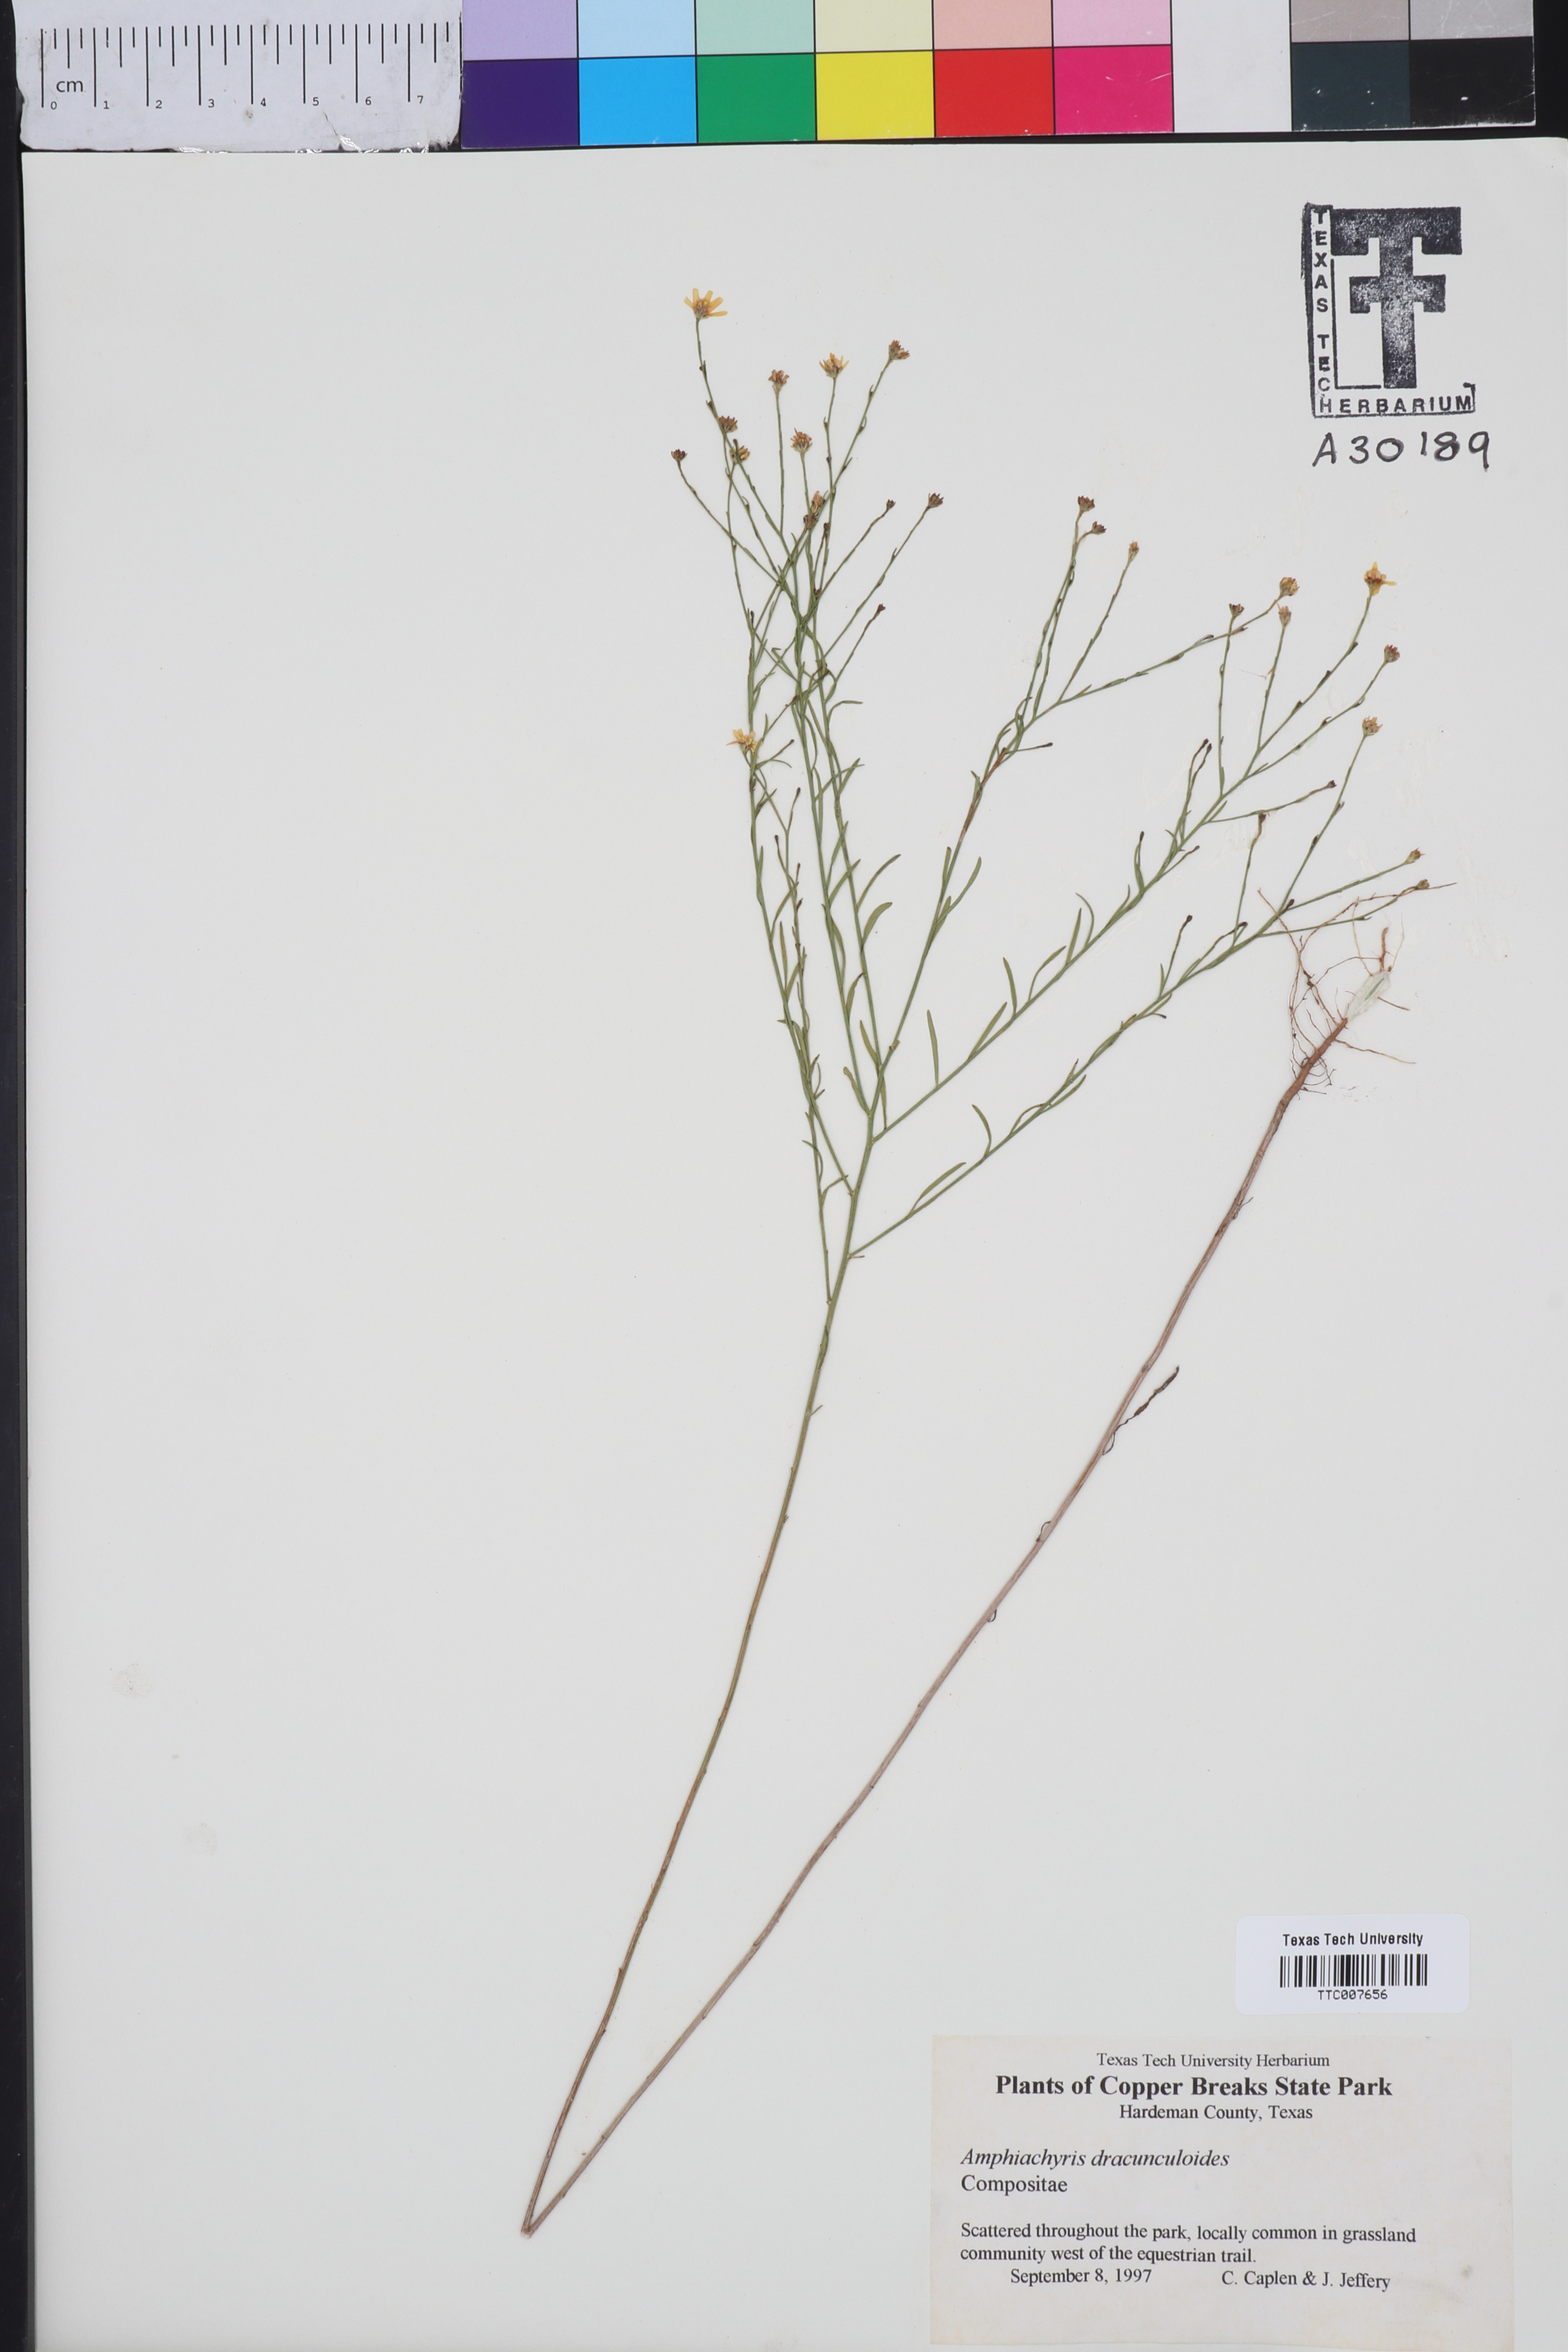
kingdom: Plantae
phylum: Tracheophyta
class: Magnoliopsida
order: Asterales
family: Asteraceae
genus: Amphiachyris
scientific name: Amphiachyris dracunculoides
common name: Broomweed
